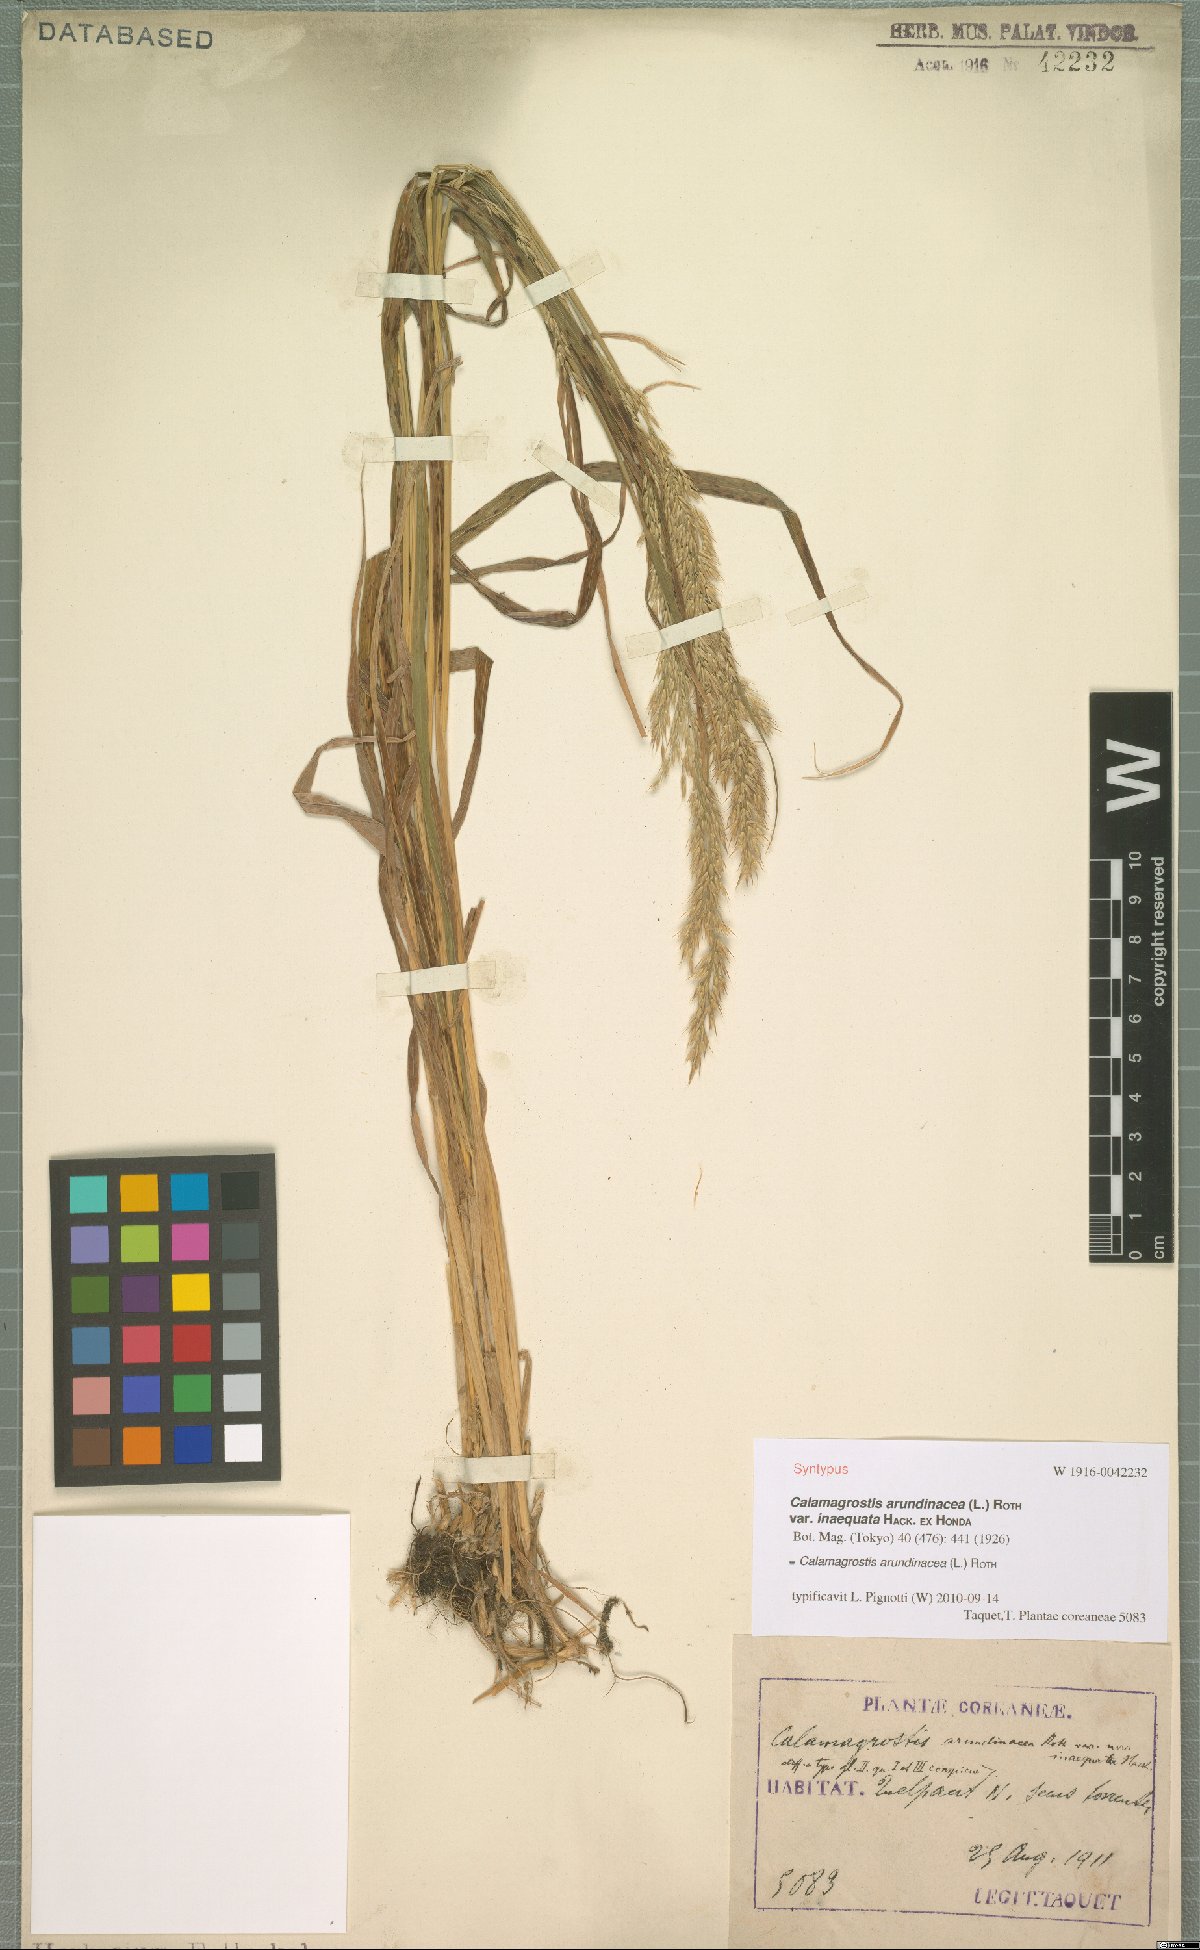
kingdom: Plantae
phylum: Tracheophyta
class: Liliopsida
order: Poales
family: Poaceae
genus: Calamagrostis
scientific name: Calamagrostis arundinacea
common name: Metskastik
